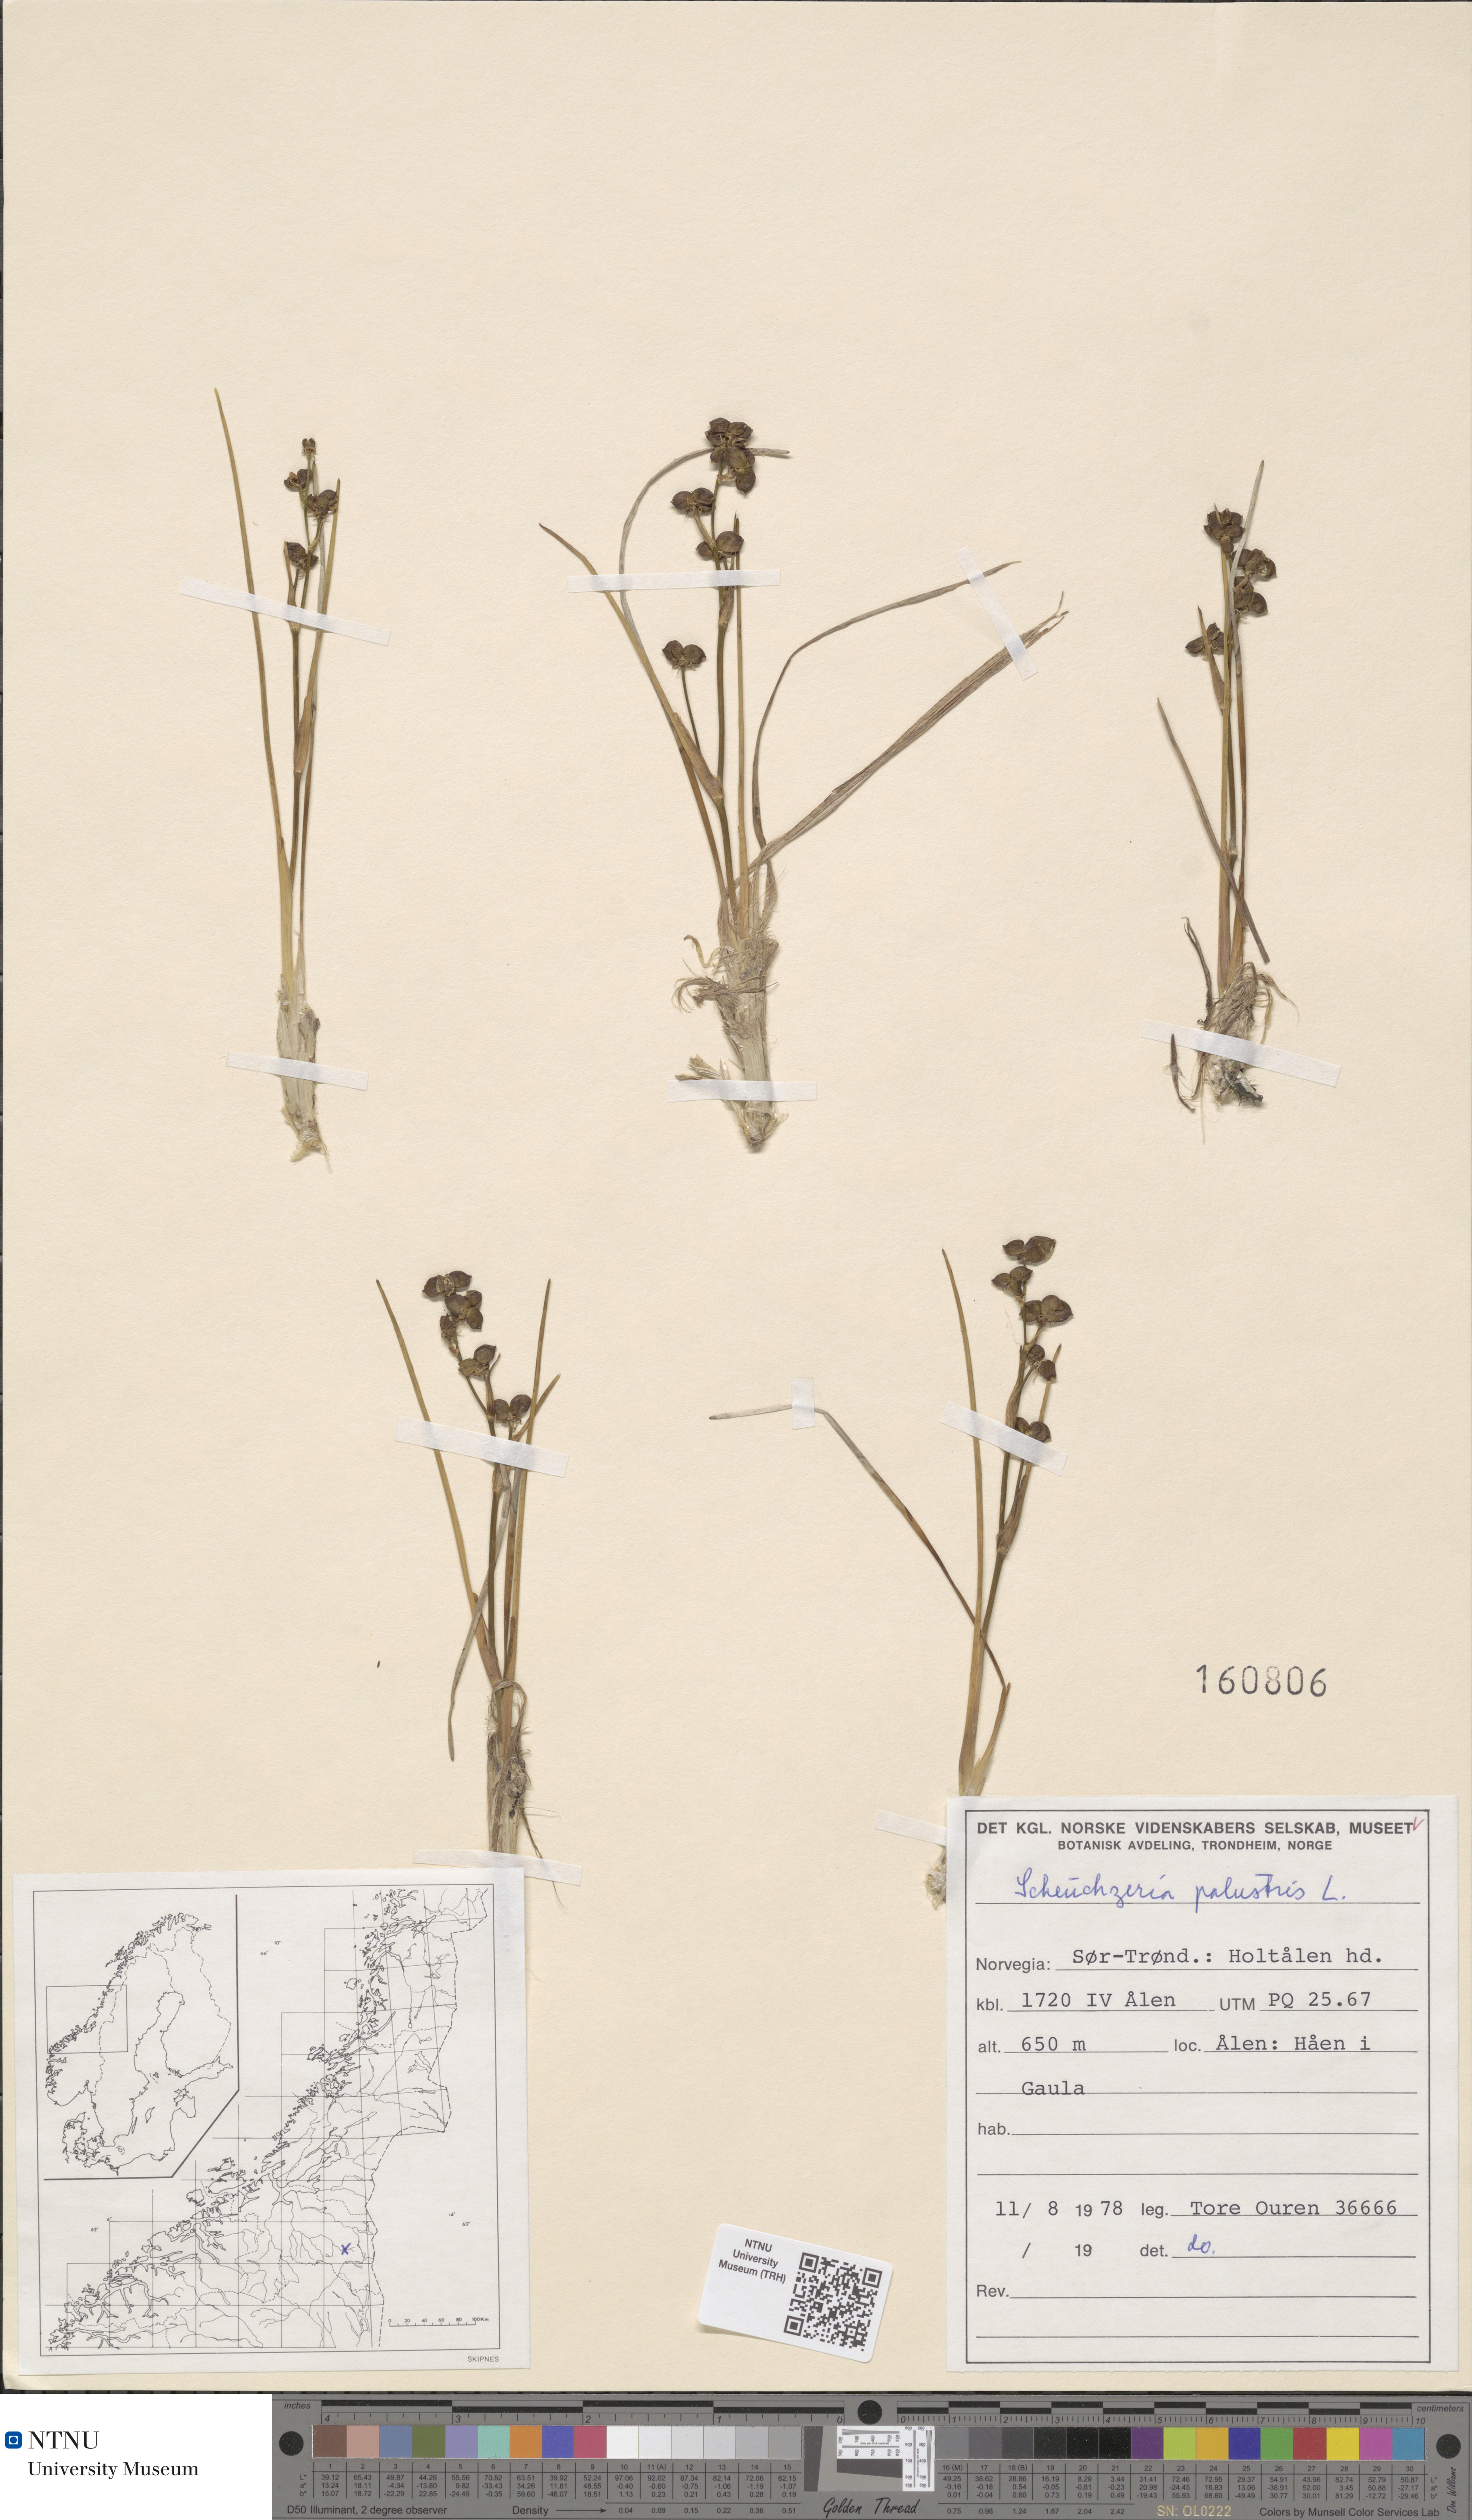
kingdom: Plantae
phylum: Tracheophyta
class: Liliopsida
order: Alismatales
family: Scheuchzeriaceae
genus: Scheuchzeria
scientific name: Scheuchzeria palustris
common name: Rannoch-rush
